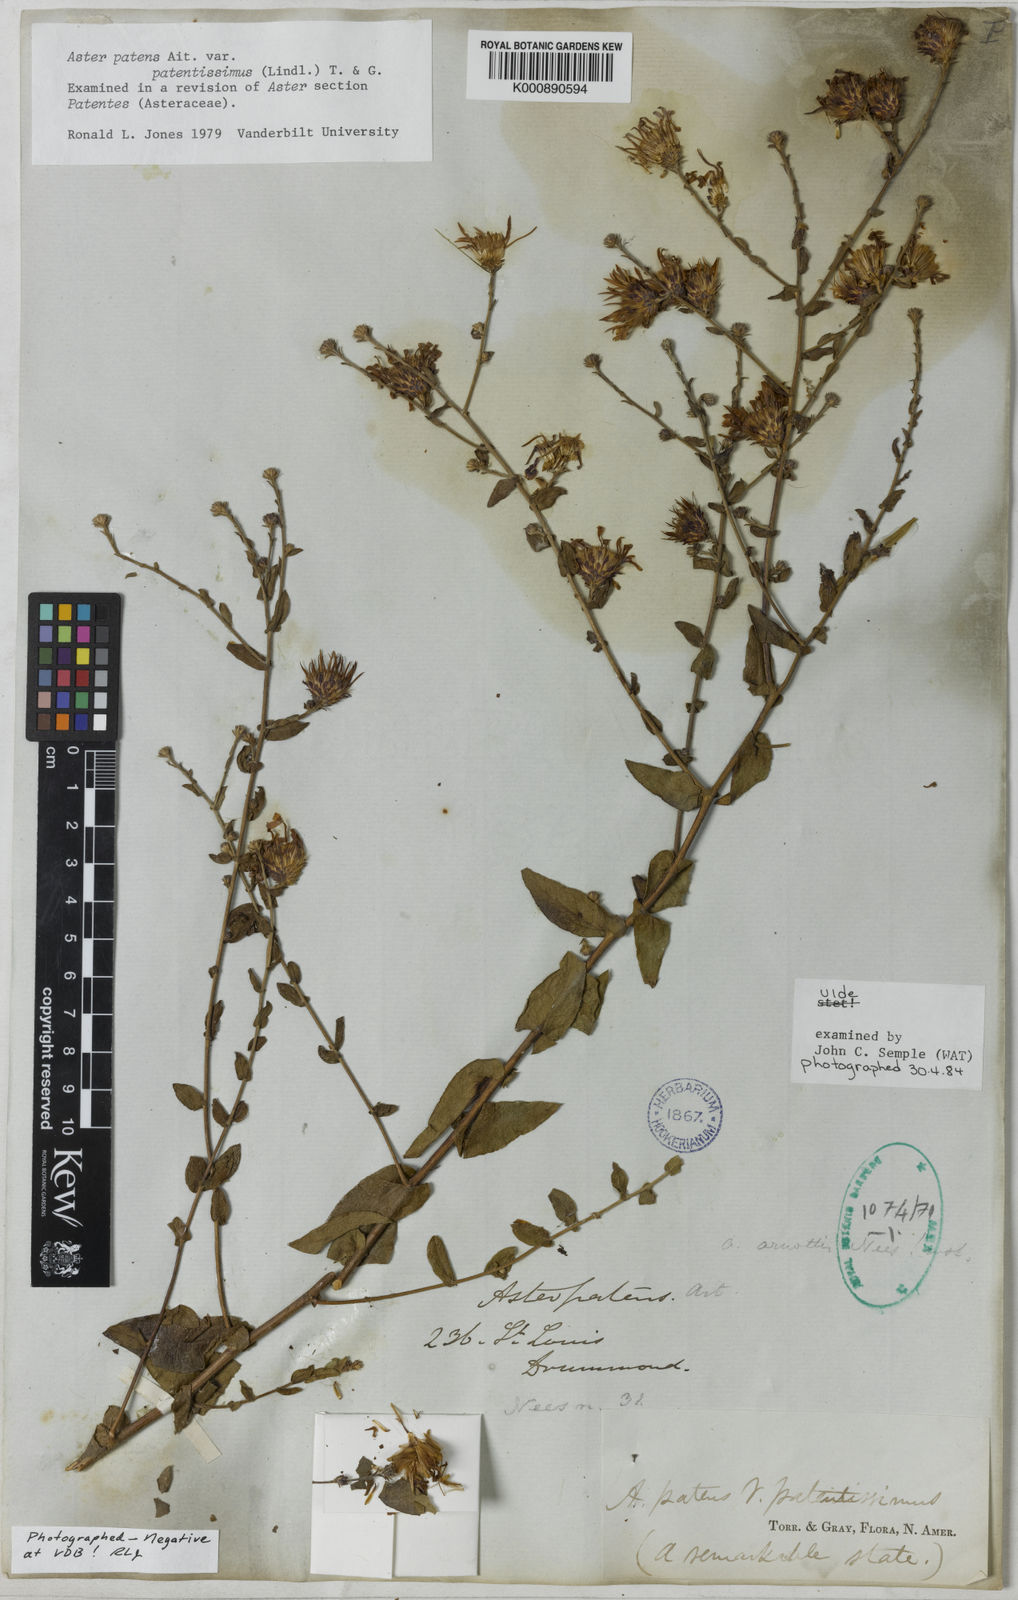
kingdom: Plantae
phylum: Tracheophyta
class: Magnoliopsida
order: Asterales
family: Asteraceae
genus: Symphyotrichum
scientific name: Symphyotrichum patens
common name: Late purple aster
